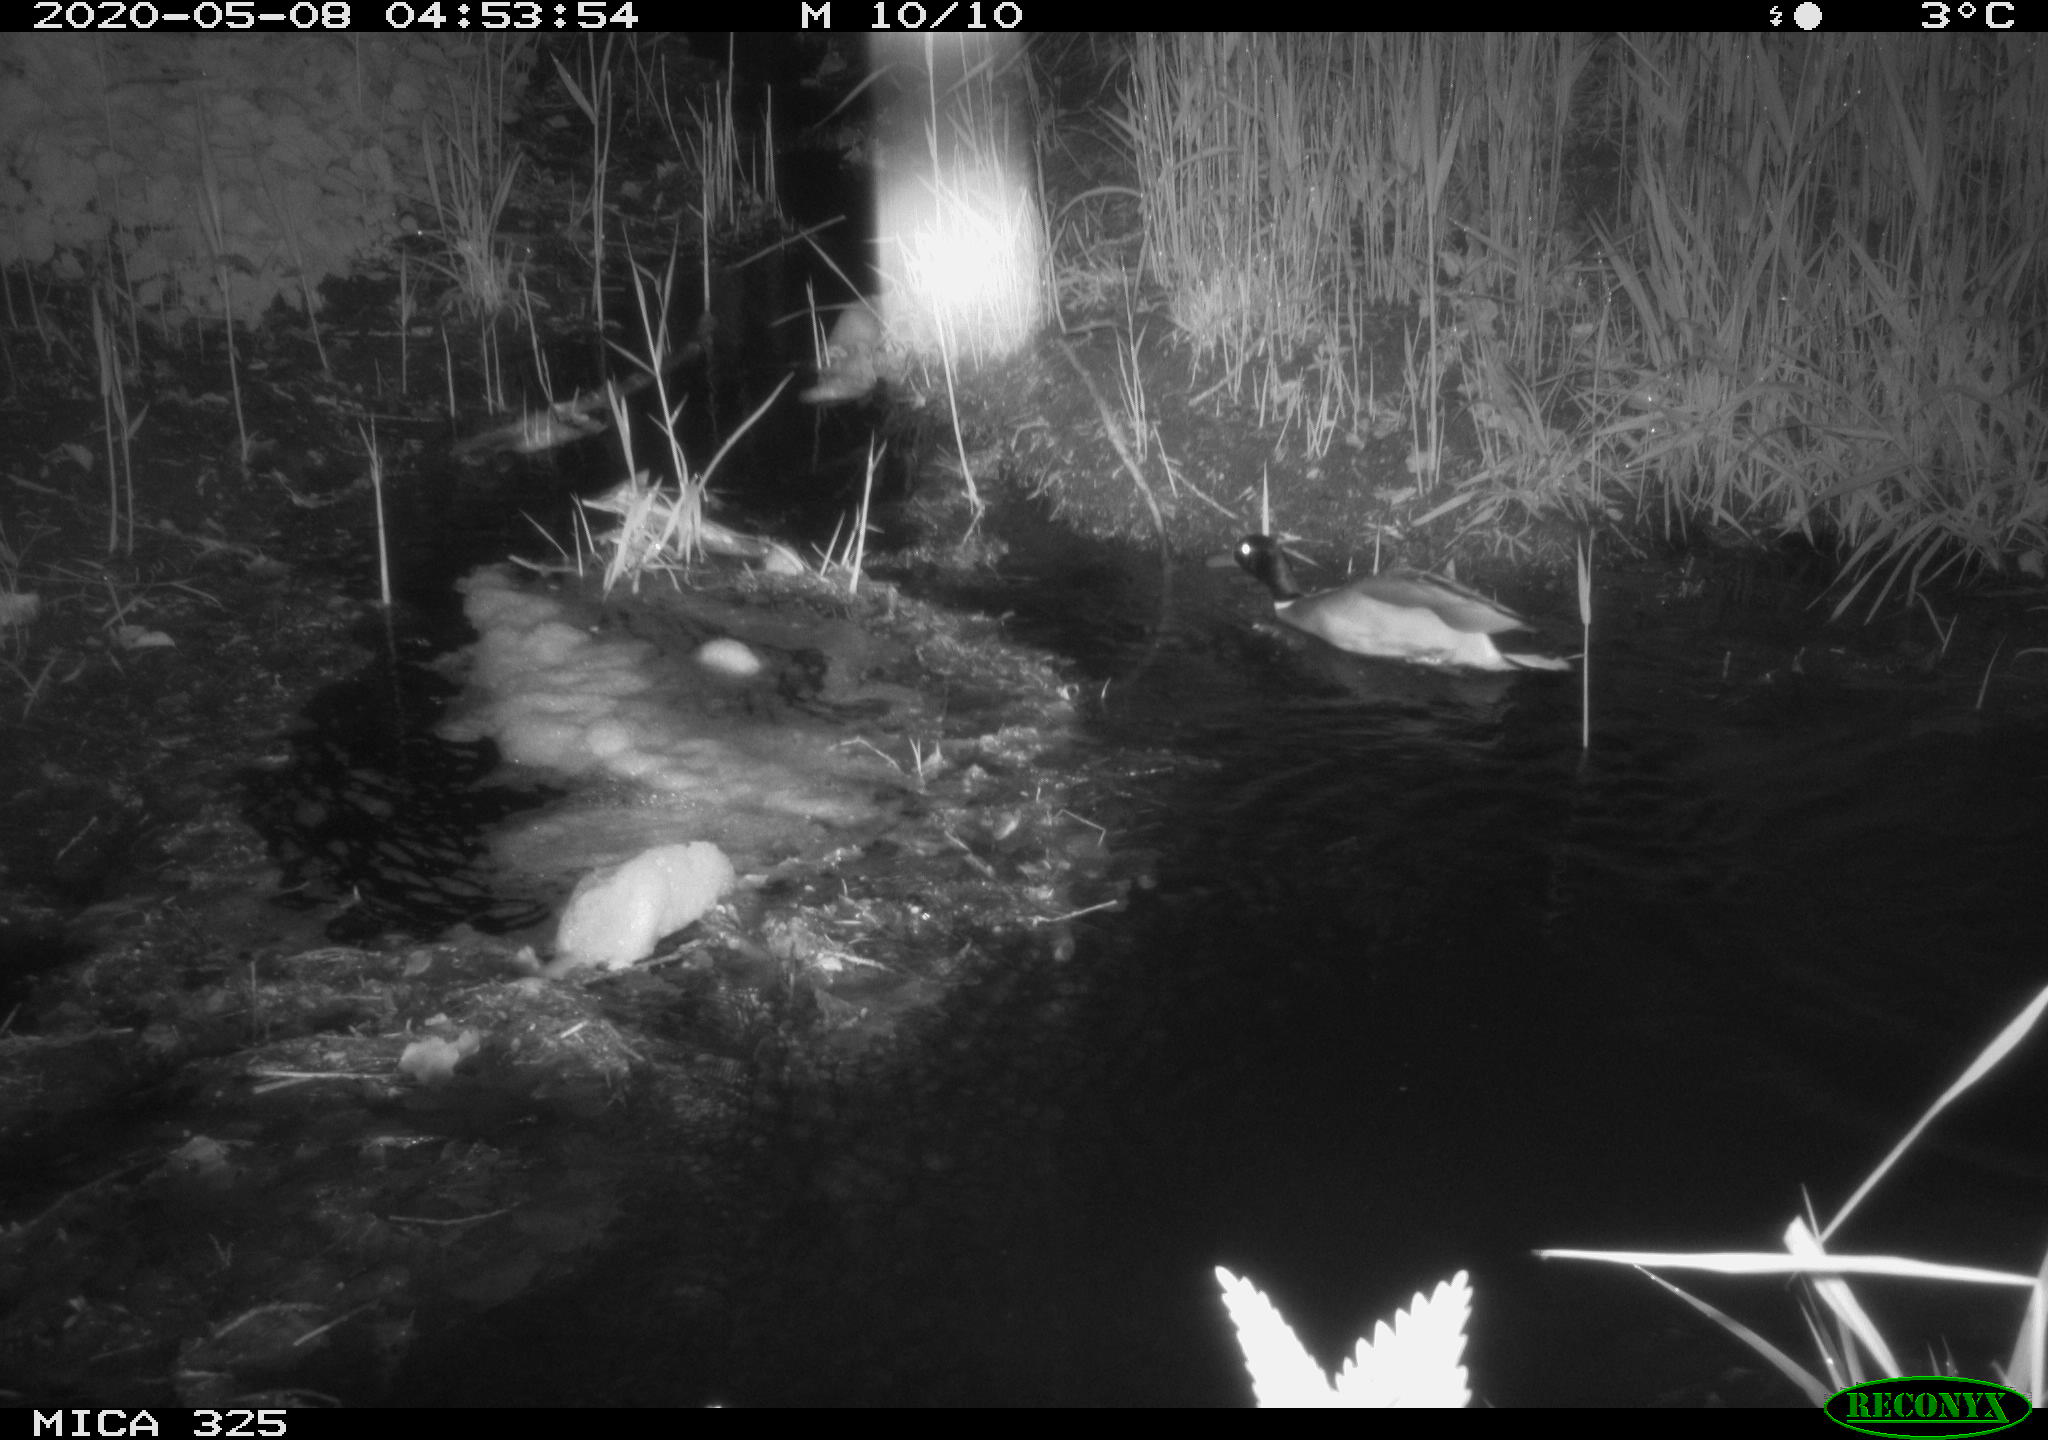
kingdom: Animalia
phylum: Chordata
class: Aves
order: Anseriformes
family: Anatidae
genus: Anas
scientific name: Anas platyrhynchos
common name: Mallard
